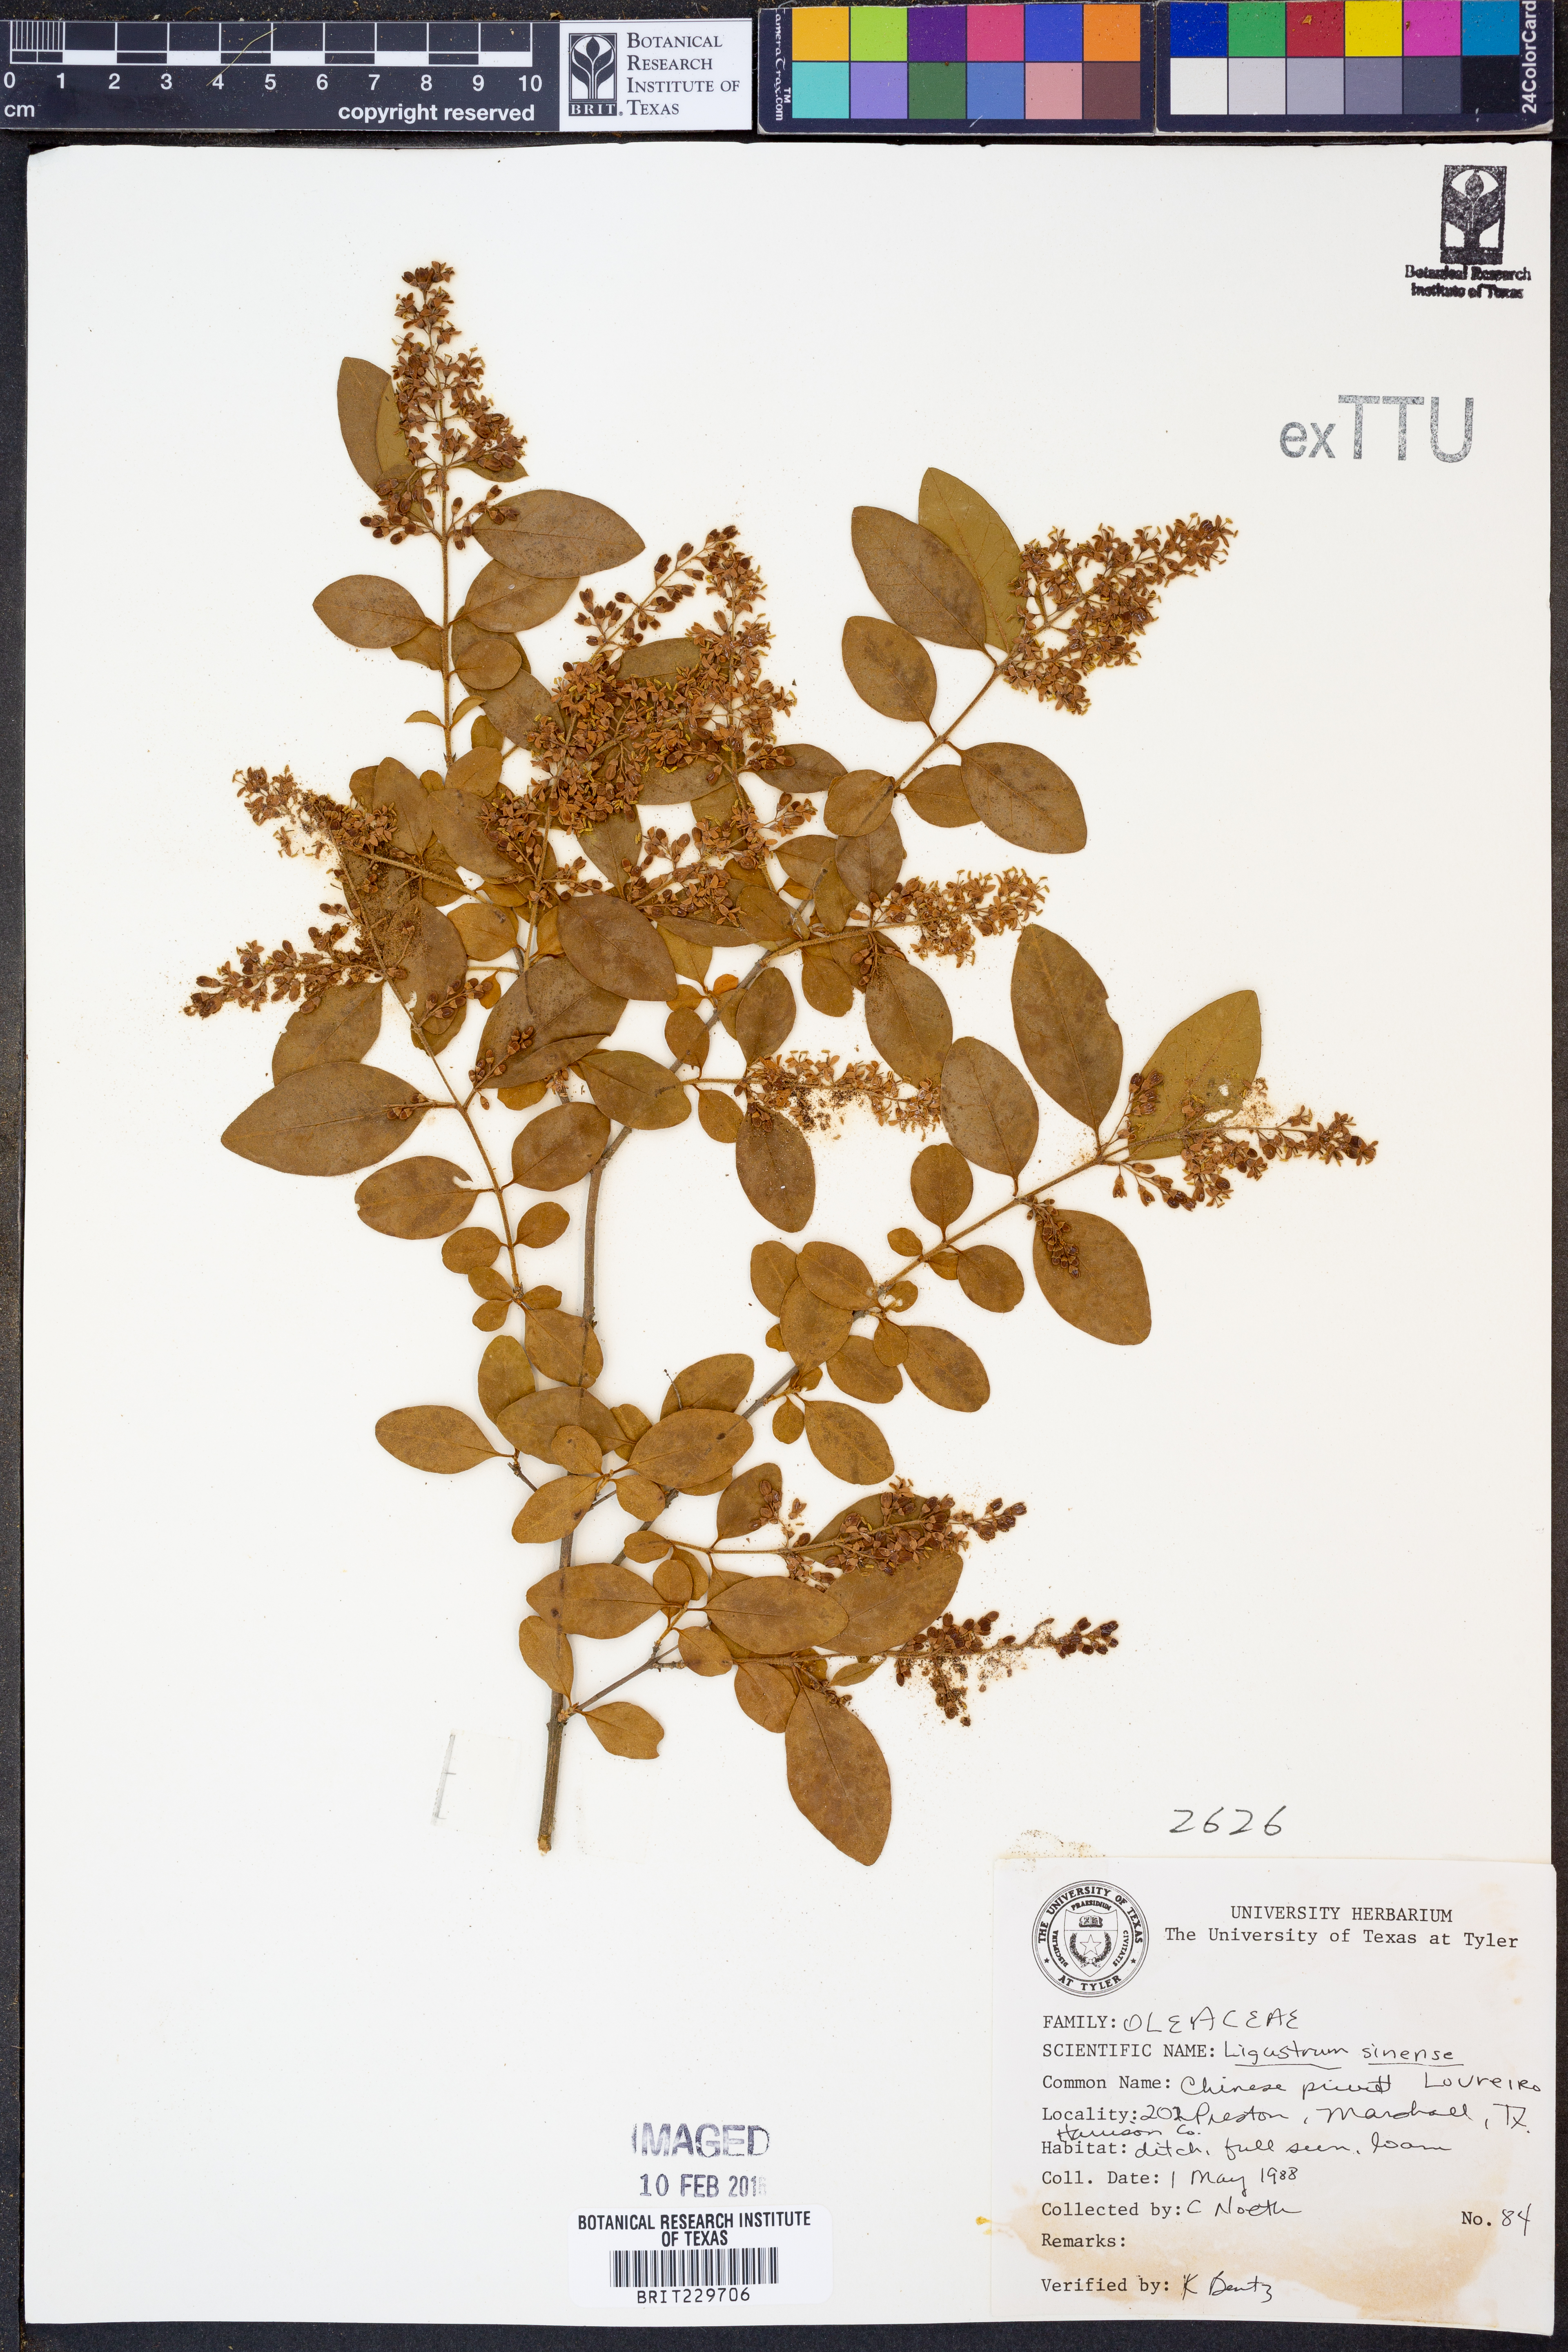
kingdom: Plantae
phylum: Tracheophyta
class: Magnoliopsida
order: Lamiales
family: Oleaceae
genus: Ligustrum
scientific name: Ligustrum sinense
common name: Chinese privet
